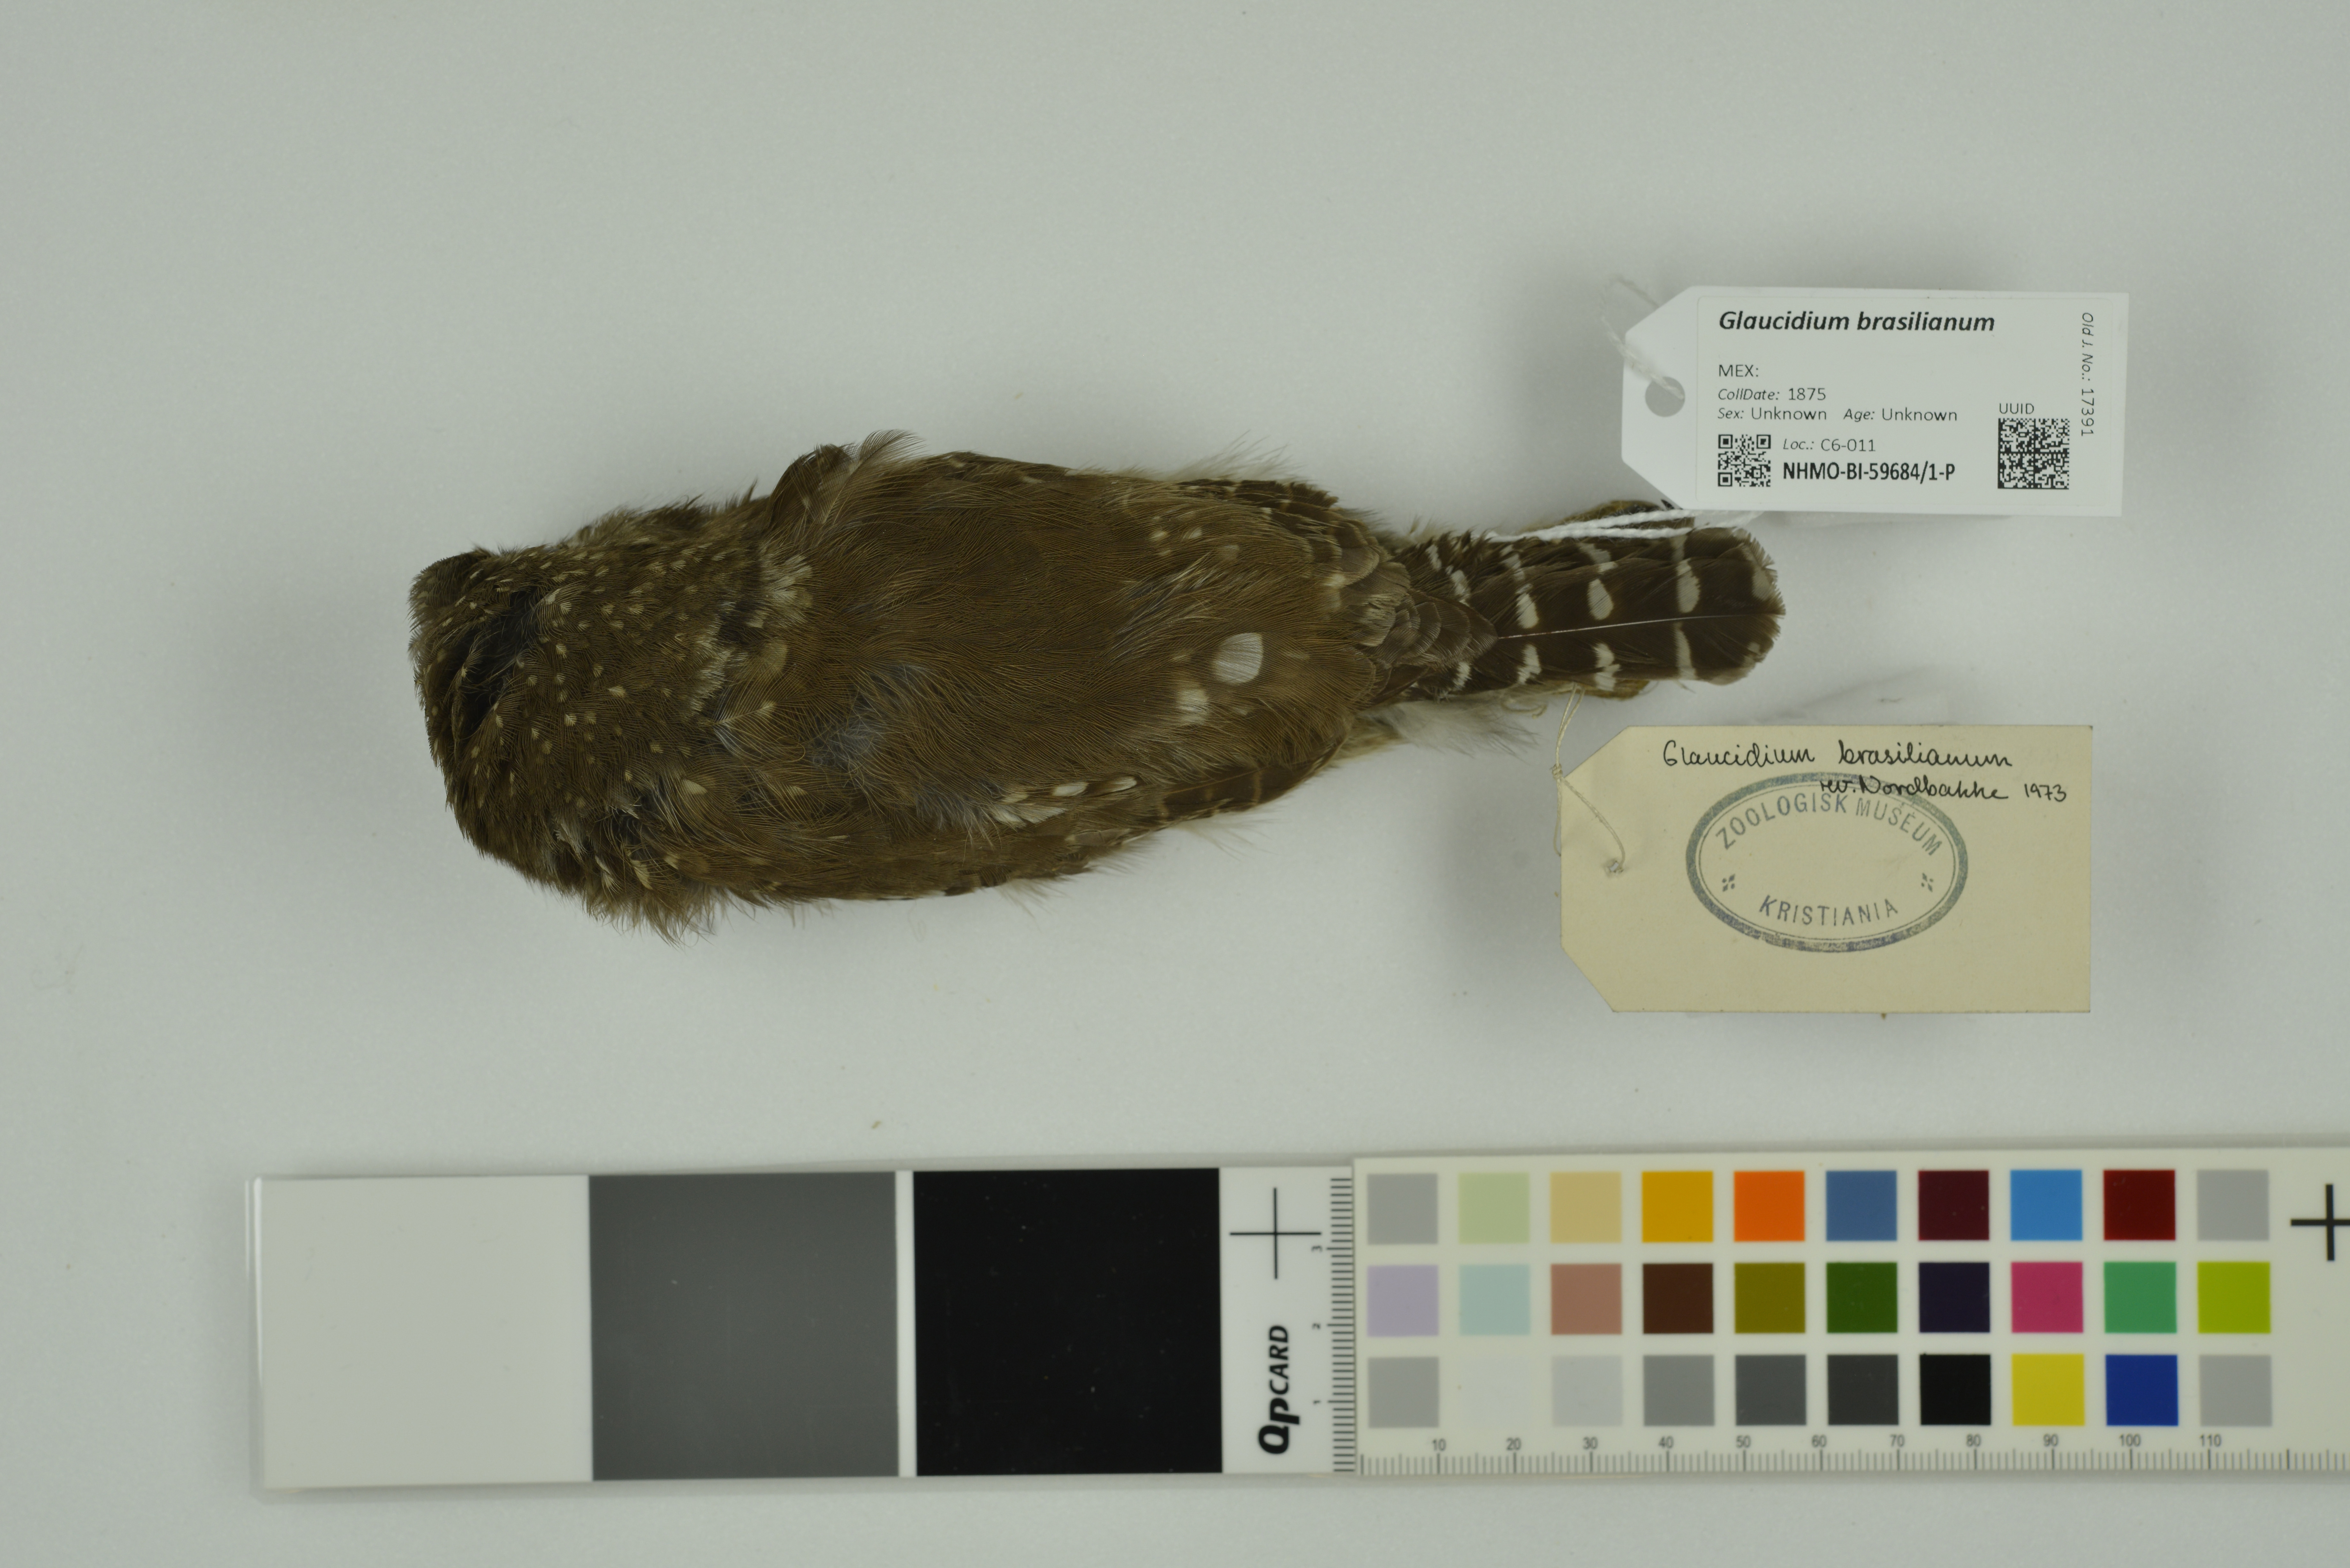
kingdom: Animalia
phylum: Chordata
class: Aves
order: Strigiformes
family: Strigidae
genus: Glaucidium
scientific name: Glaucidium brasilianum
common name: Ferruginous pygmy-owl
